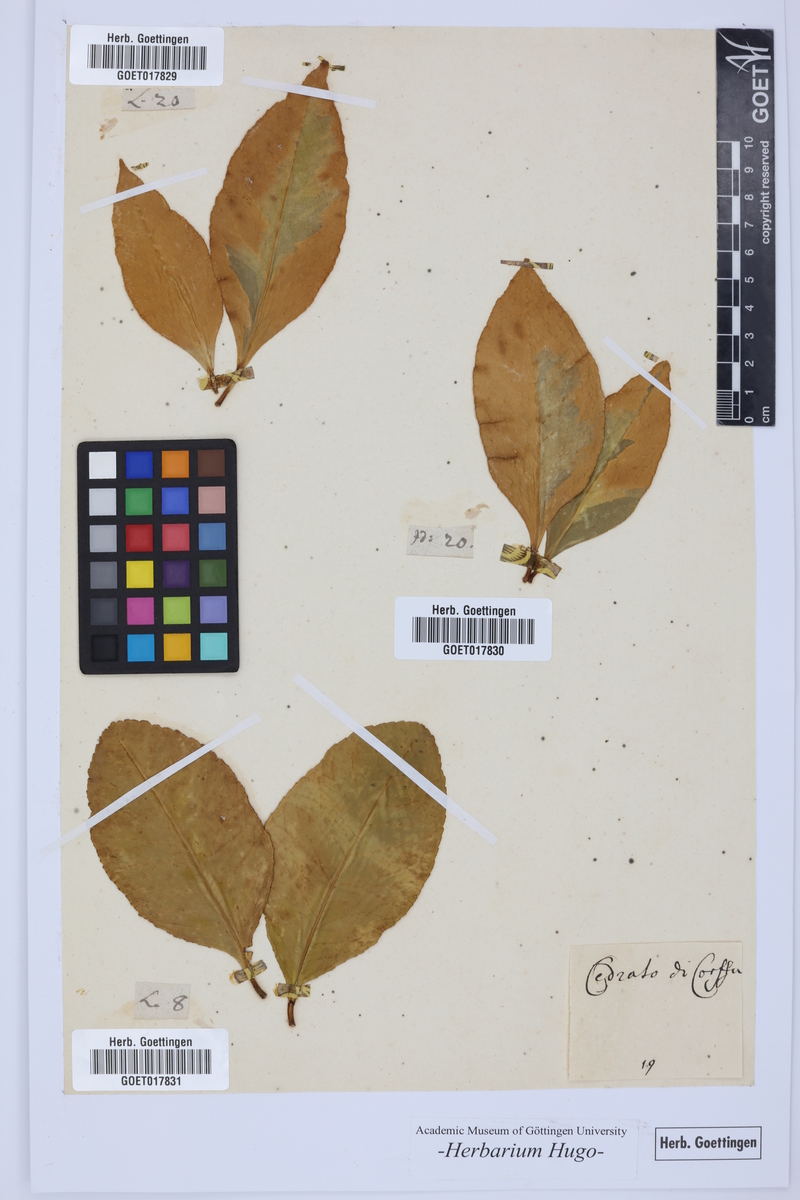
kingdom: Plantae
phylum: Tracheophyta
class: Magnoliopsida
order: Sapindales
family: Rutaceae
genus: Citrus
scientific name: Citrus
